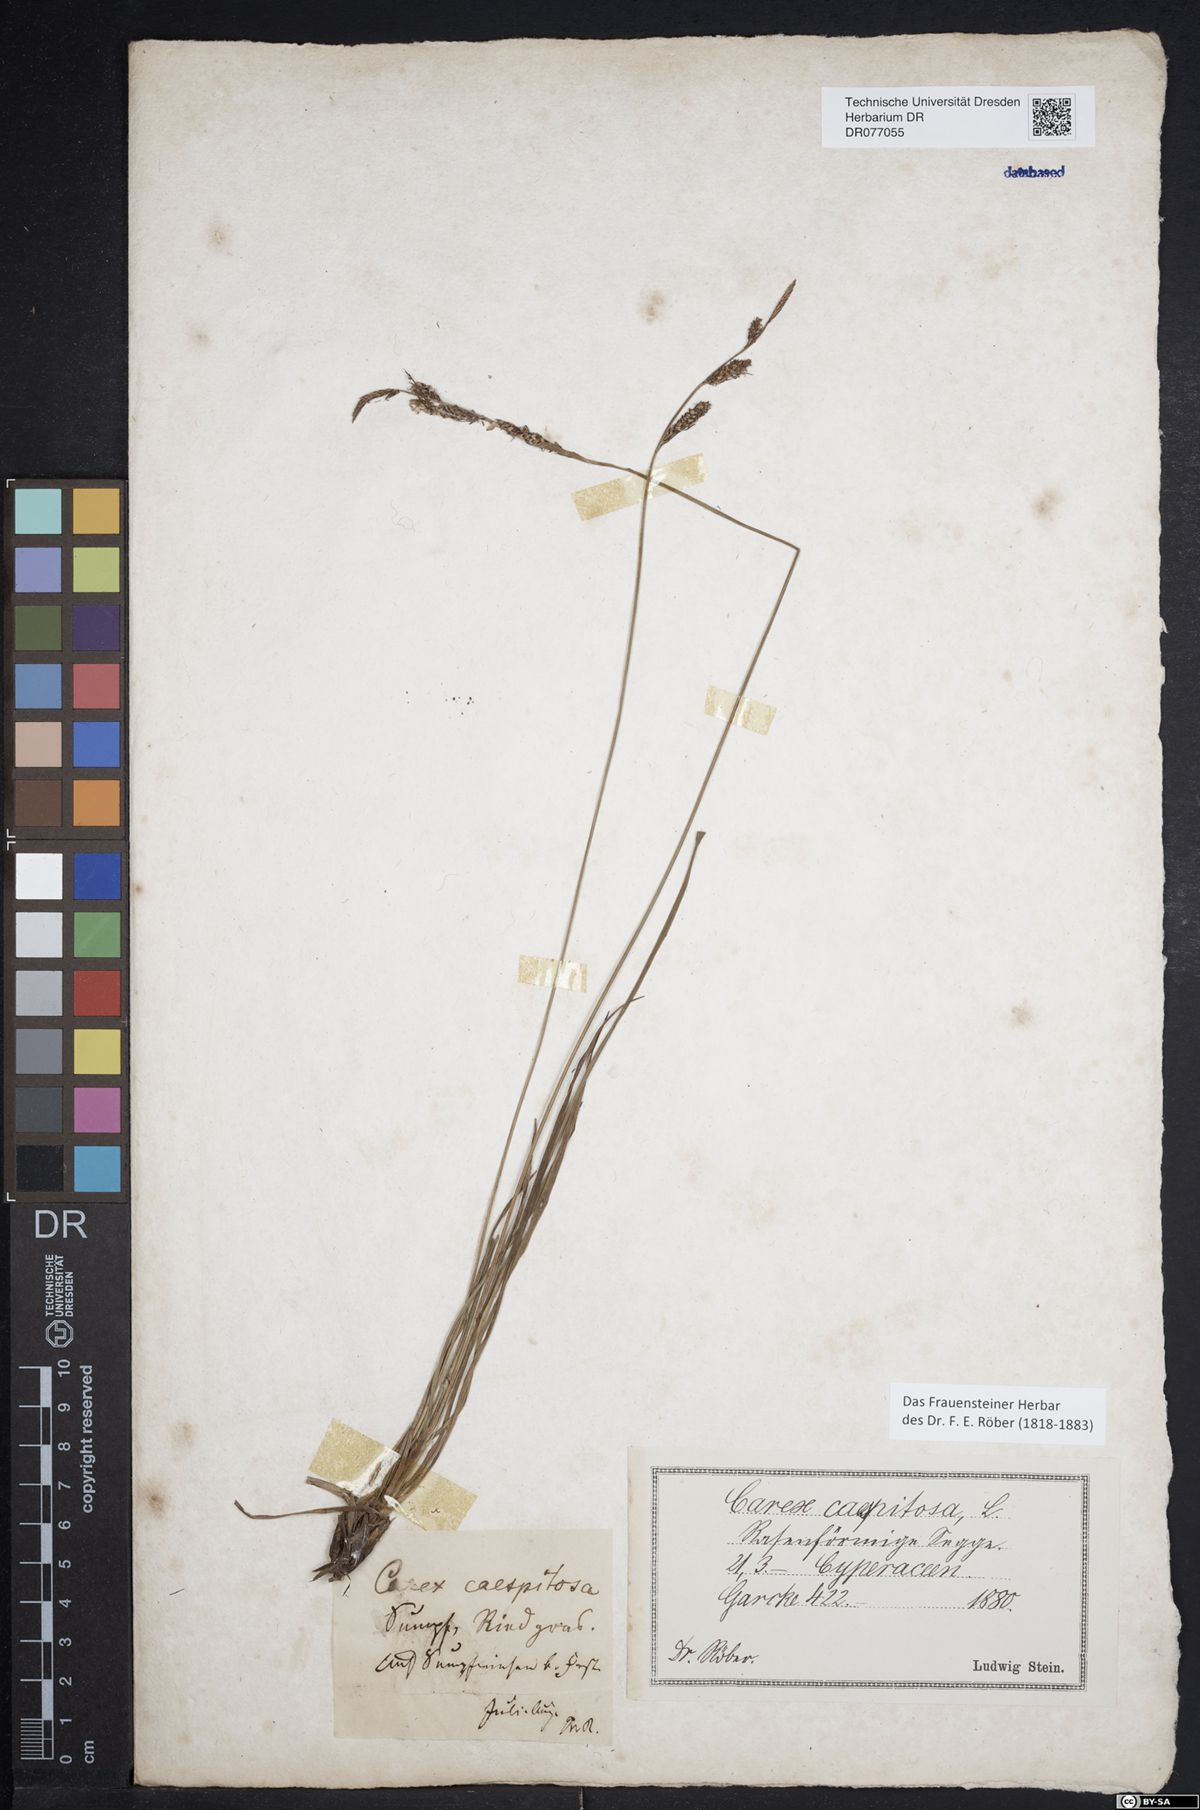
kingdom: Plantae
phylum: Tracheophyta
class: Liliopsida
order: Poales
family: Cyperaceae
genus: Carex
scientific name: Carex cespitosa
